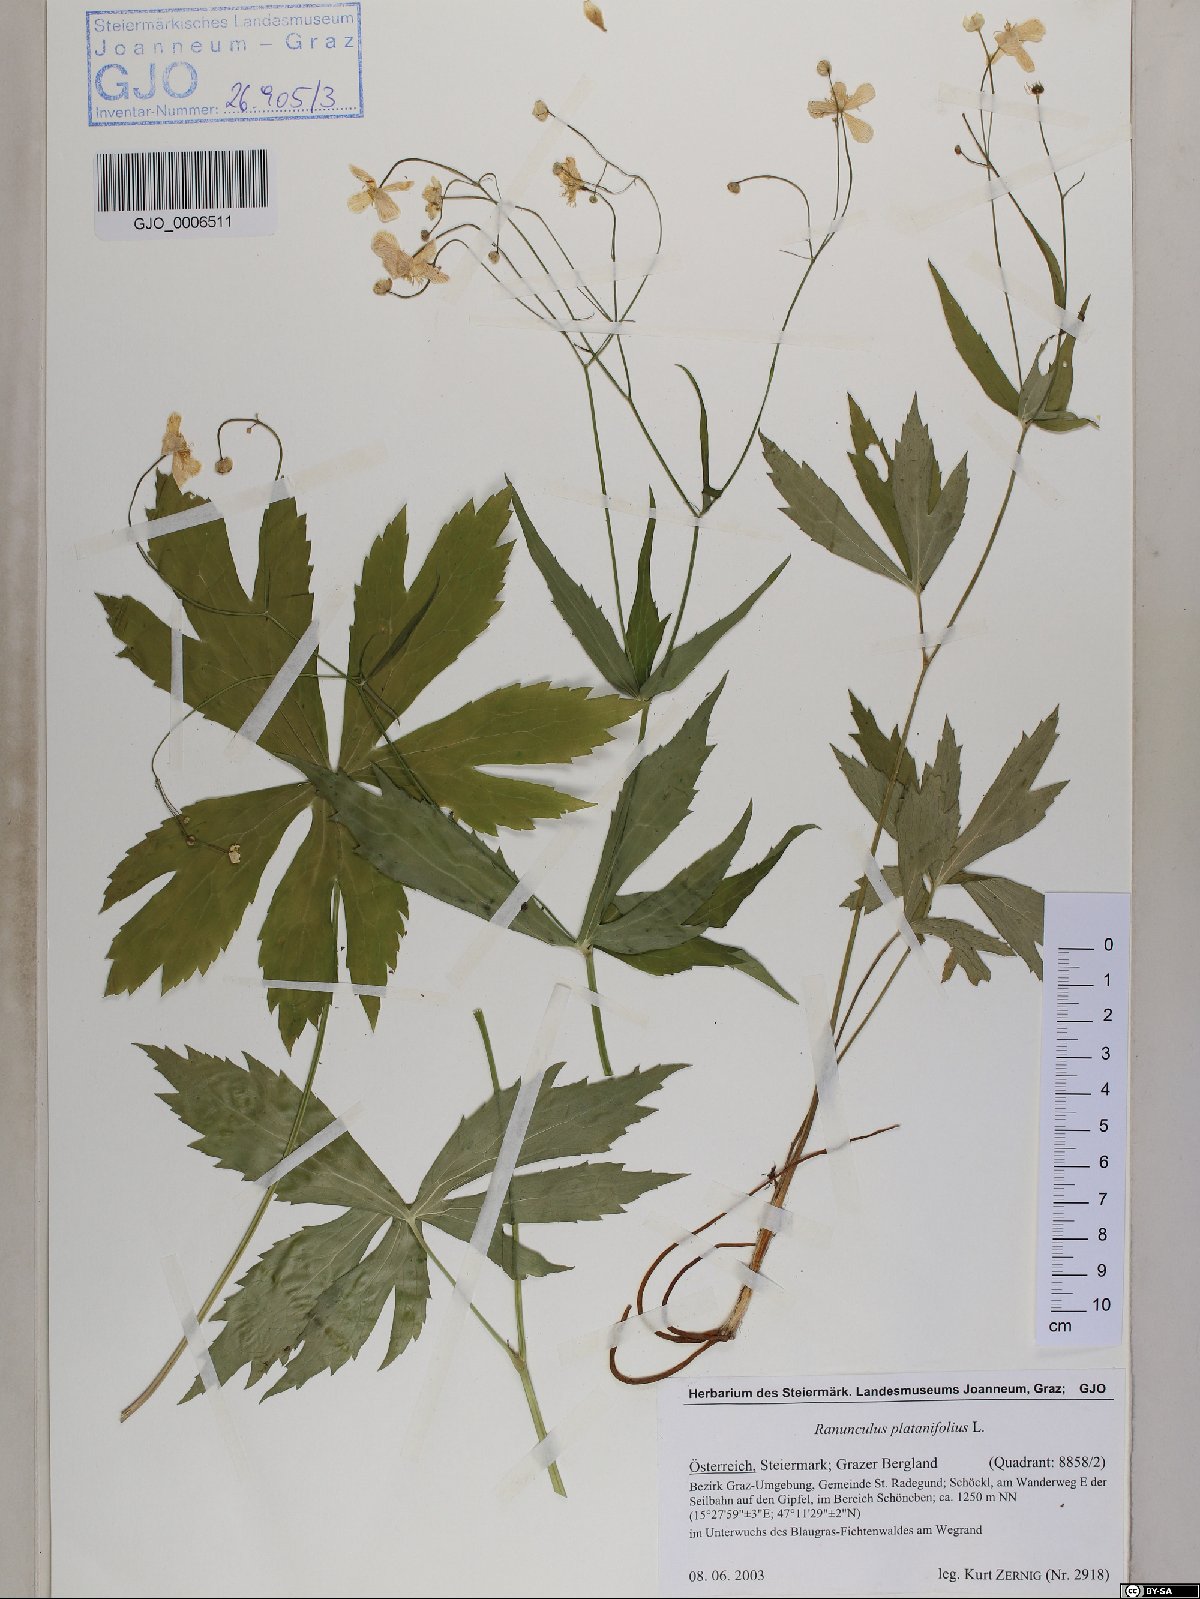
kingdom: Plantae
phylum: Tracheophyta
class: Magnoliopsida
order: Ranunculales
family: Ranunculaceae
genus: Ranunculus
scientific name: Ranunculus platanifolius
